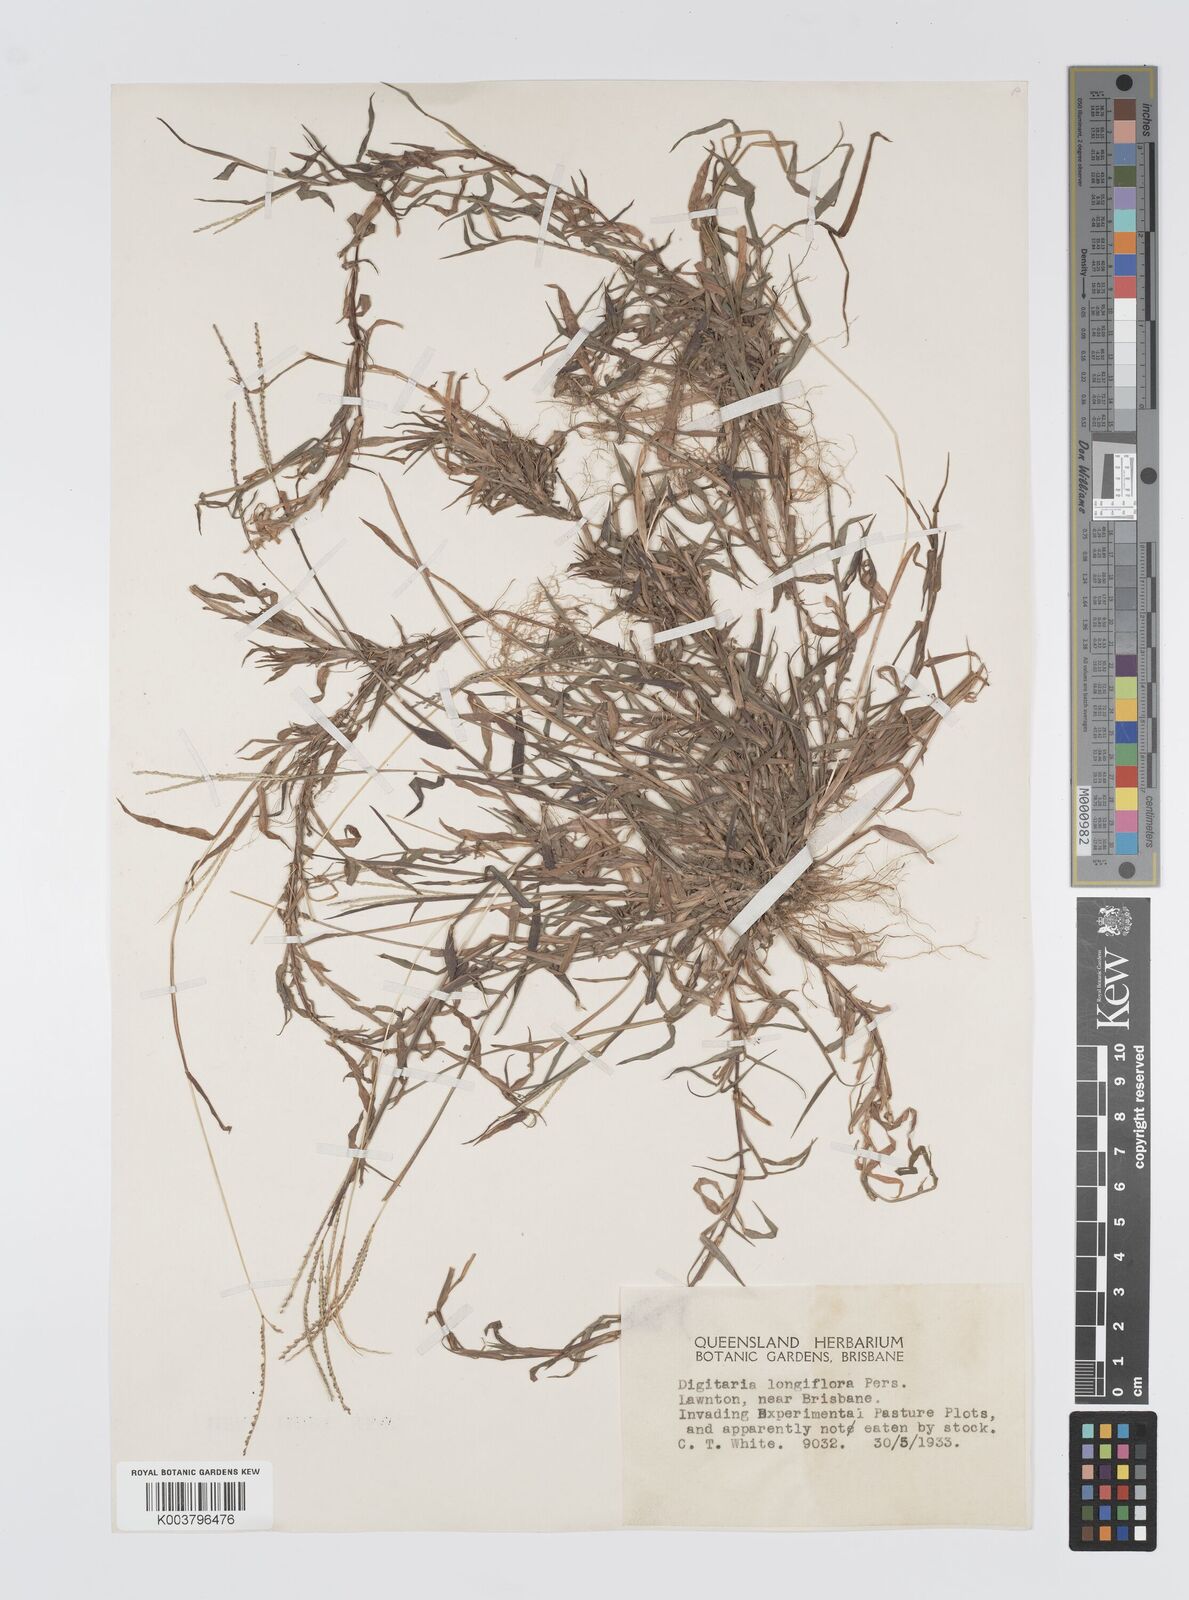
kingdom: Plantae
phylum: Tracheophyta
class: Liliopsida
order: Poales
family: Poaceae
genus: Digitaria
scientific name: Digitaria longiflora
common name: Wire crabgrass
